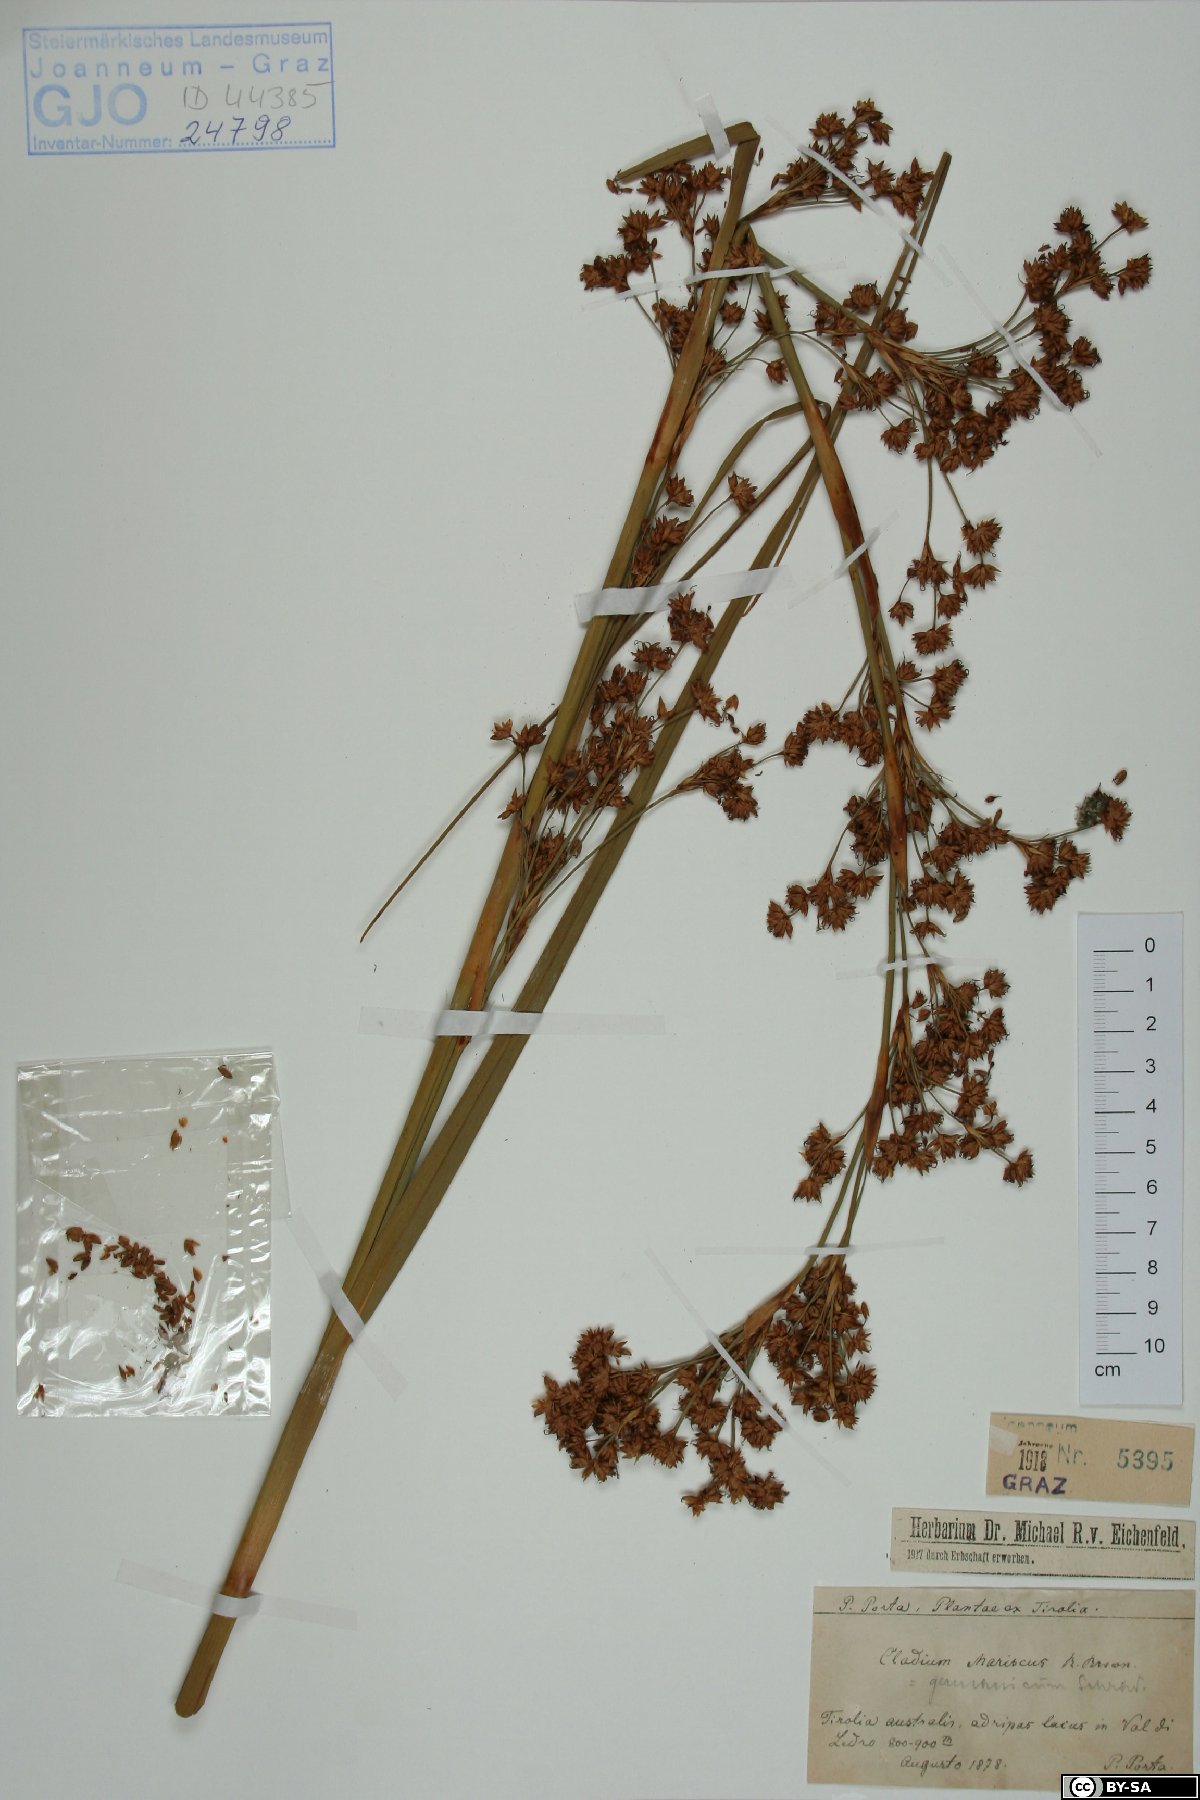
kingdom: Plantae
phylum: Tracheophyta
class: Liliopsida
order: Poales
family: Cyperaceae
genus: Cladium
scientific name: Cladium mariscus
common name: Great fen-sedge
